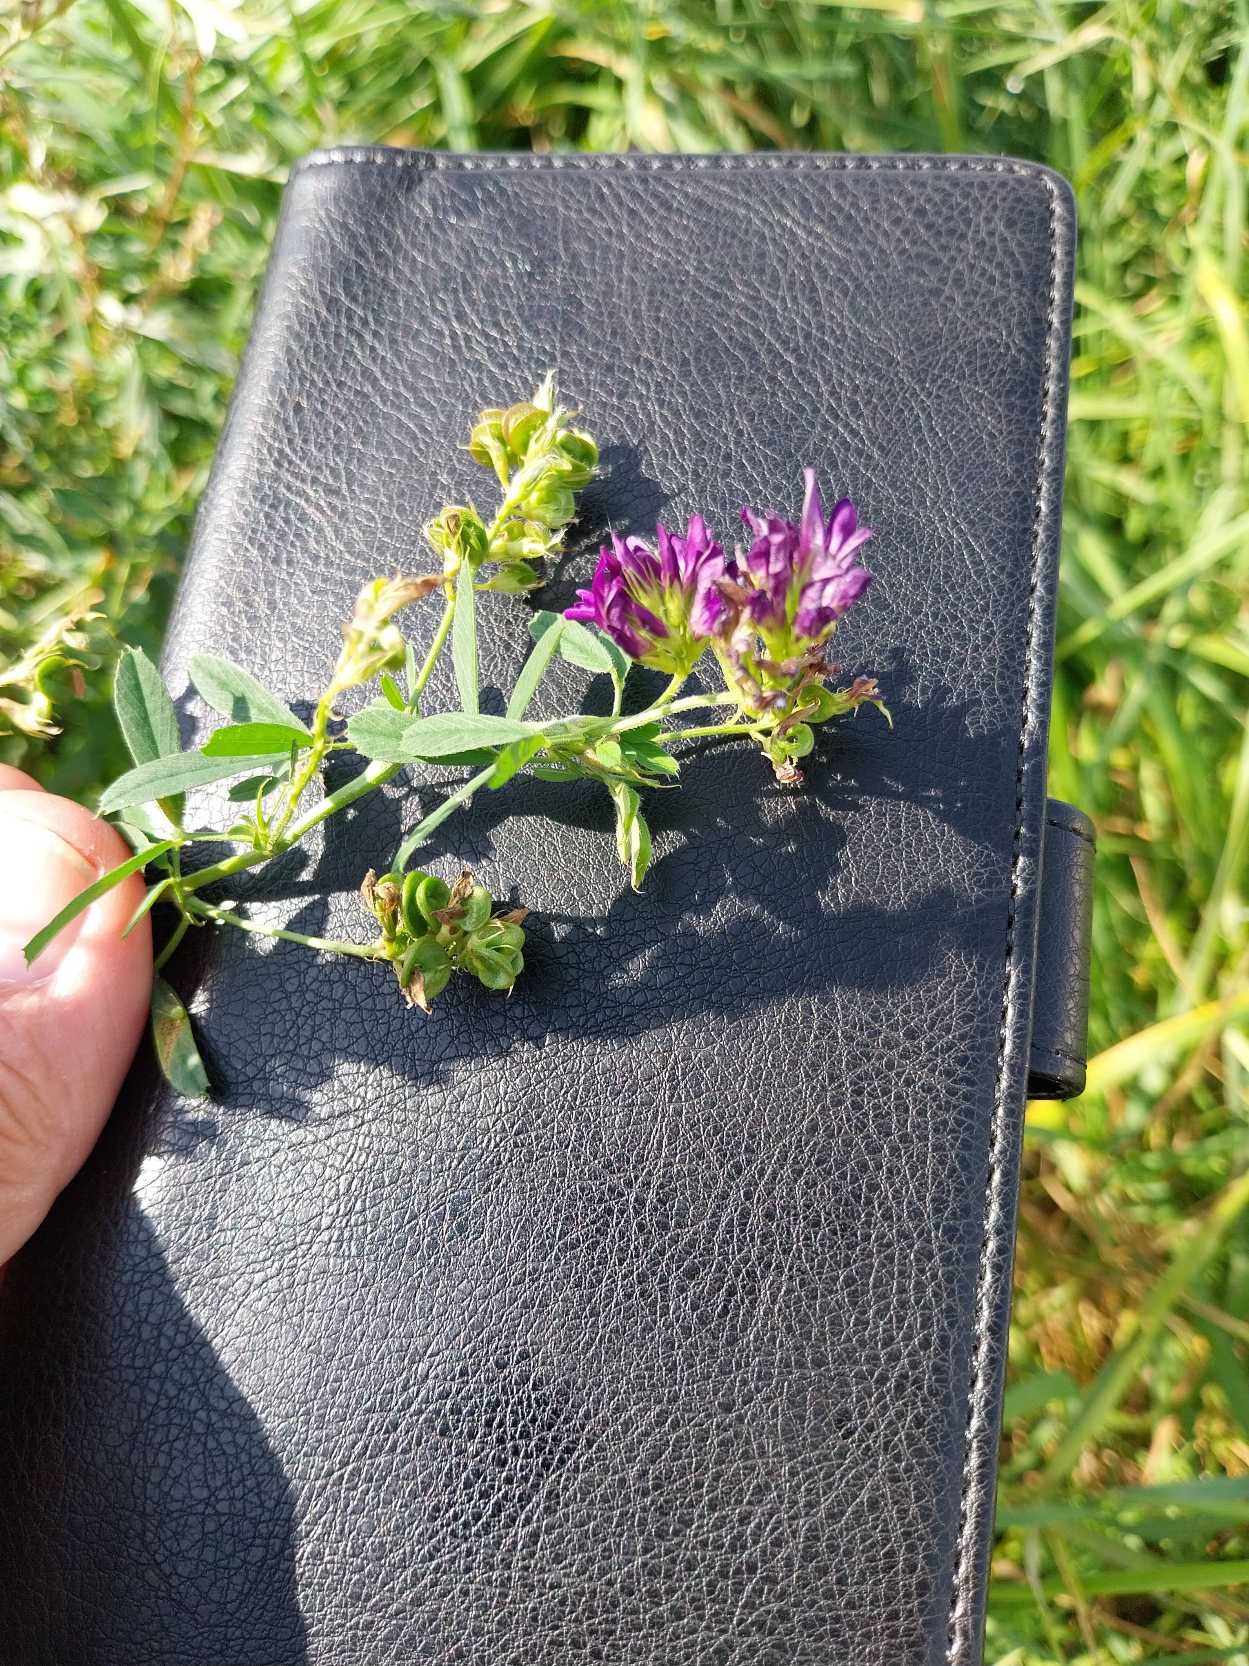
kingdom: Plantae
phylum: Tracheophyta
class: Magnoliopsida
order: Fabales
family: Fabaceae
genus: Medicago
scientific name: Medicago sativa
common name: Foderlucerne
